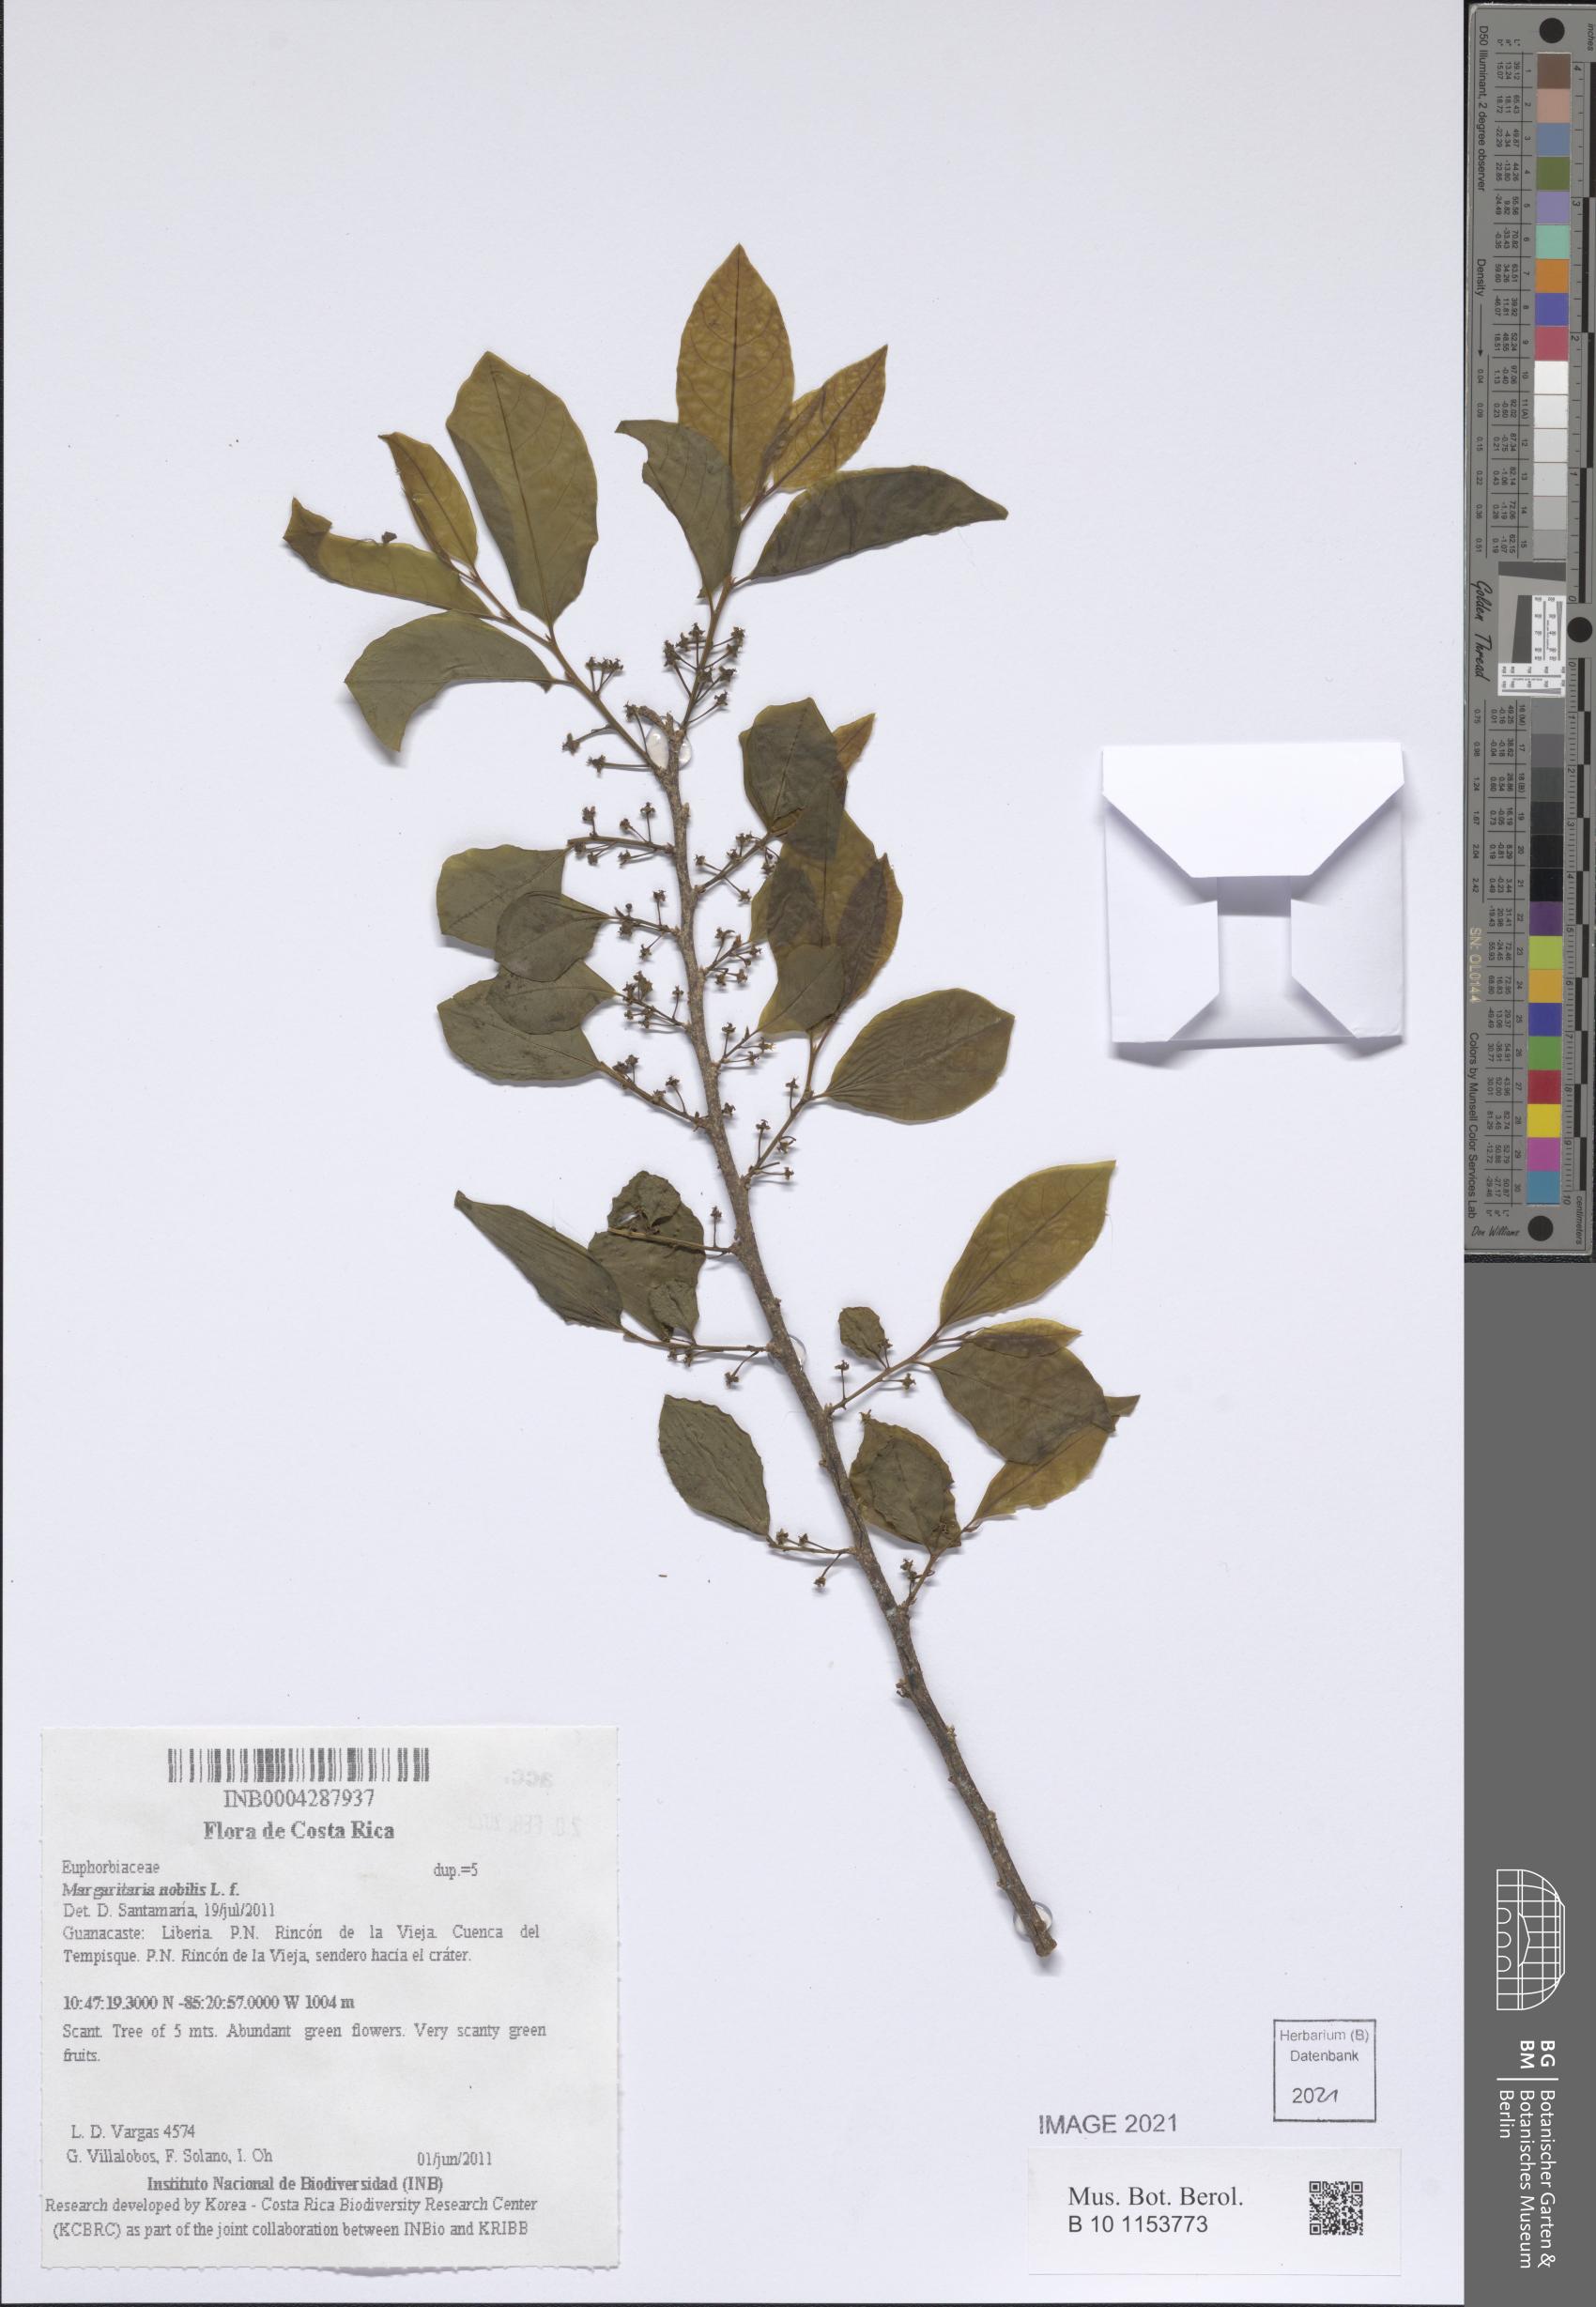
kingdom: Plantae
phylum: Tracheophyta
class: Magnoliopsida
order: Malpighiales
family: Phyllanthaceae
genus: Margaritaria
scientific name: Margaritaria nobilis
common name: Goose berry
